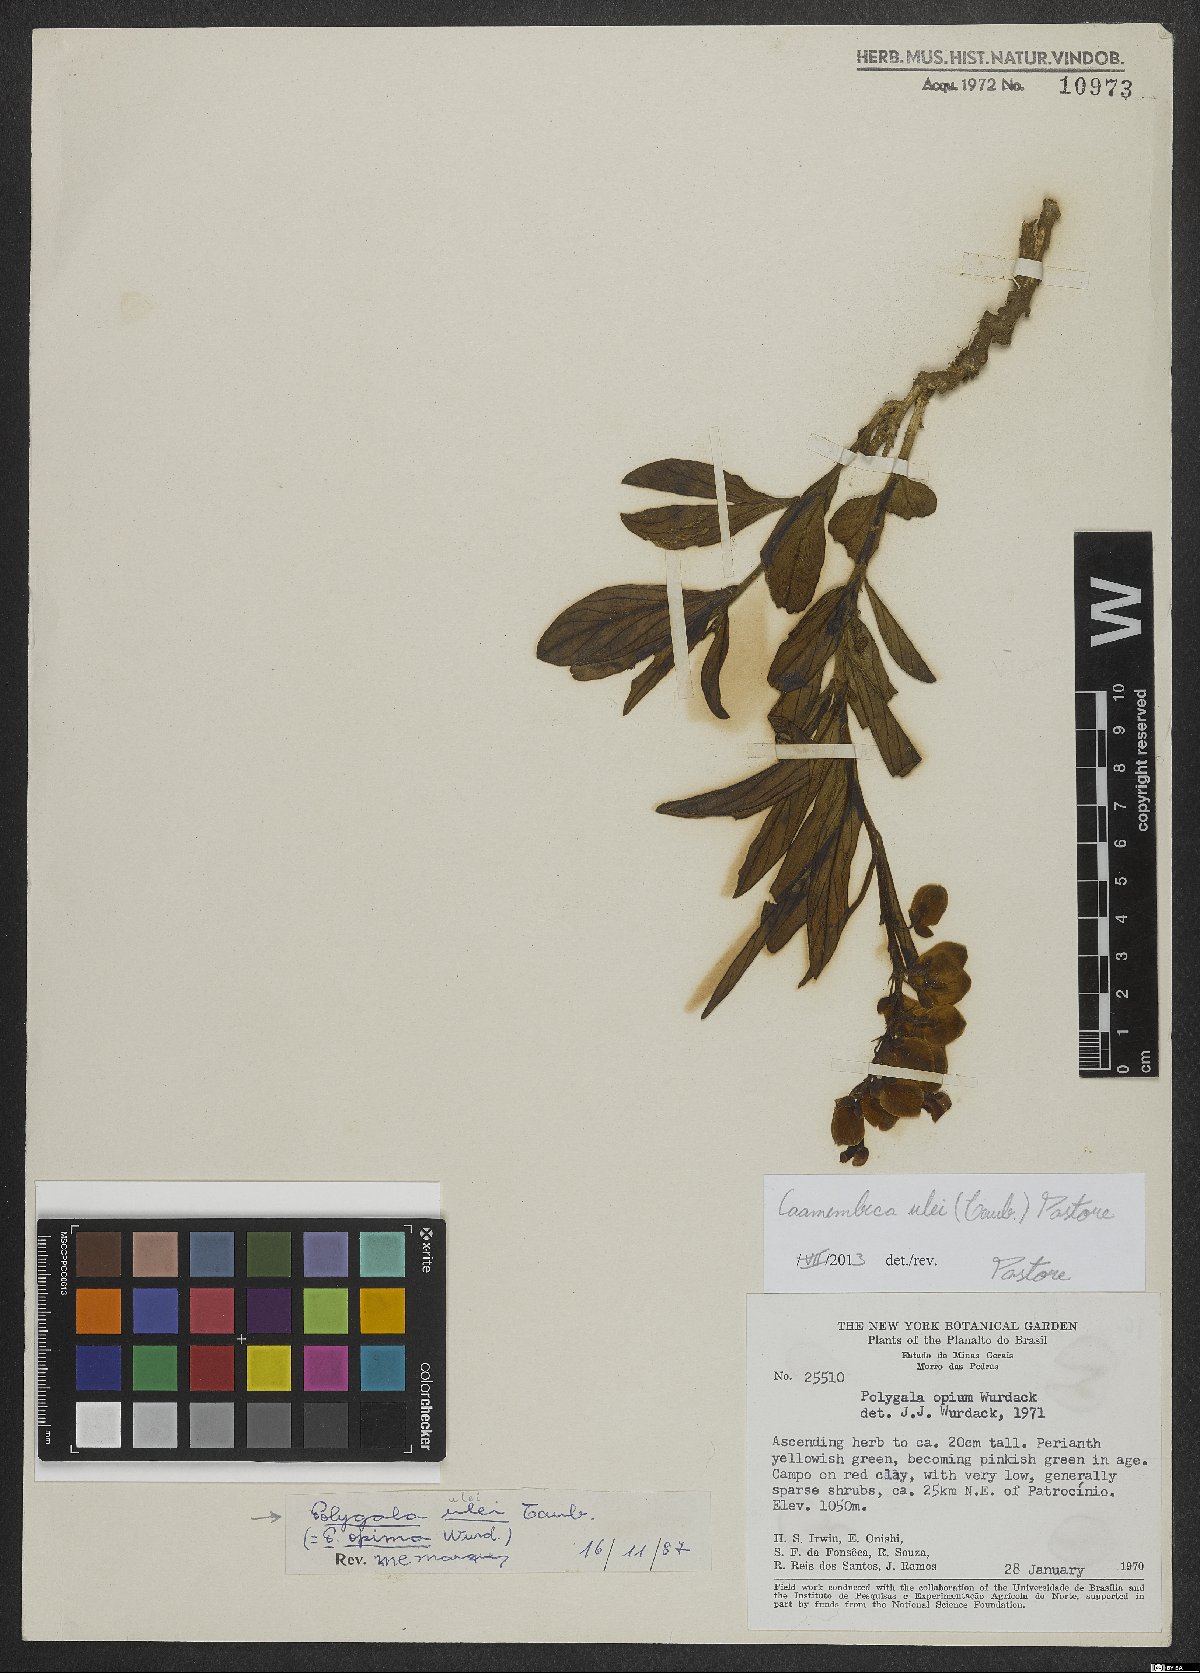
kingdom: Plantae
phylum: Tracheophyta
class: Magnoliopsida
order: Fabales
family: Polygalaceae
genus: Caamembeca
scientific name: Caamembeca ulei
